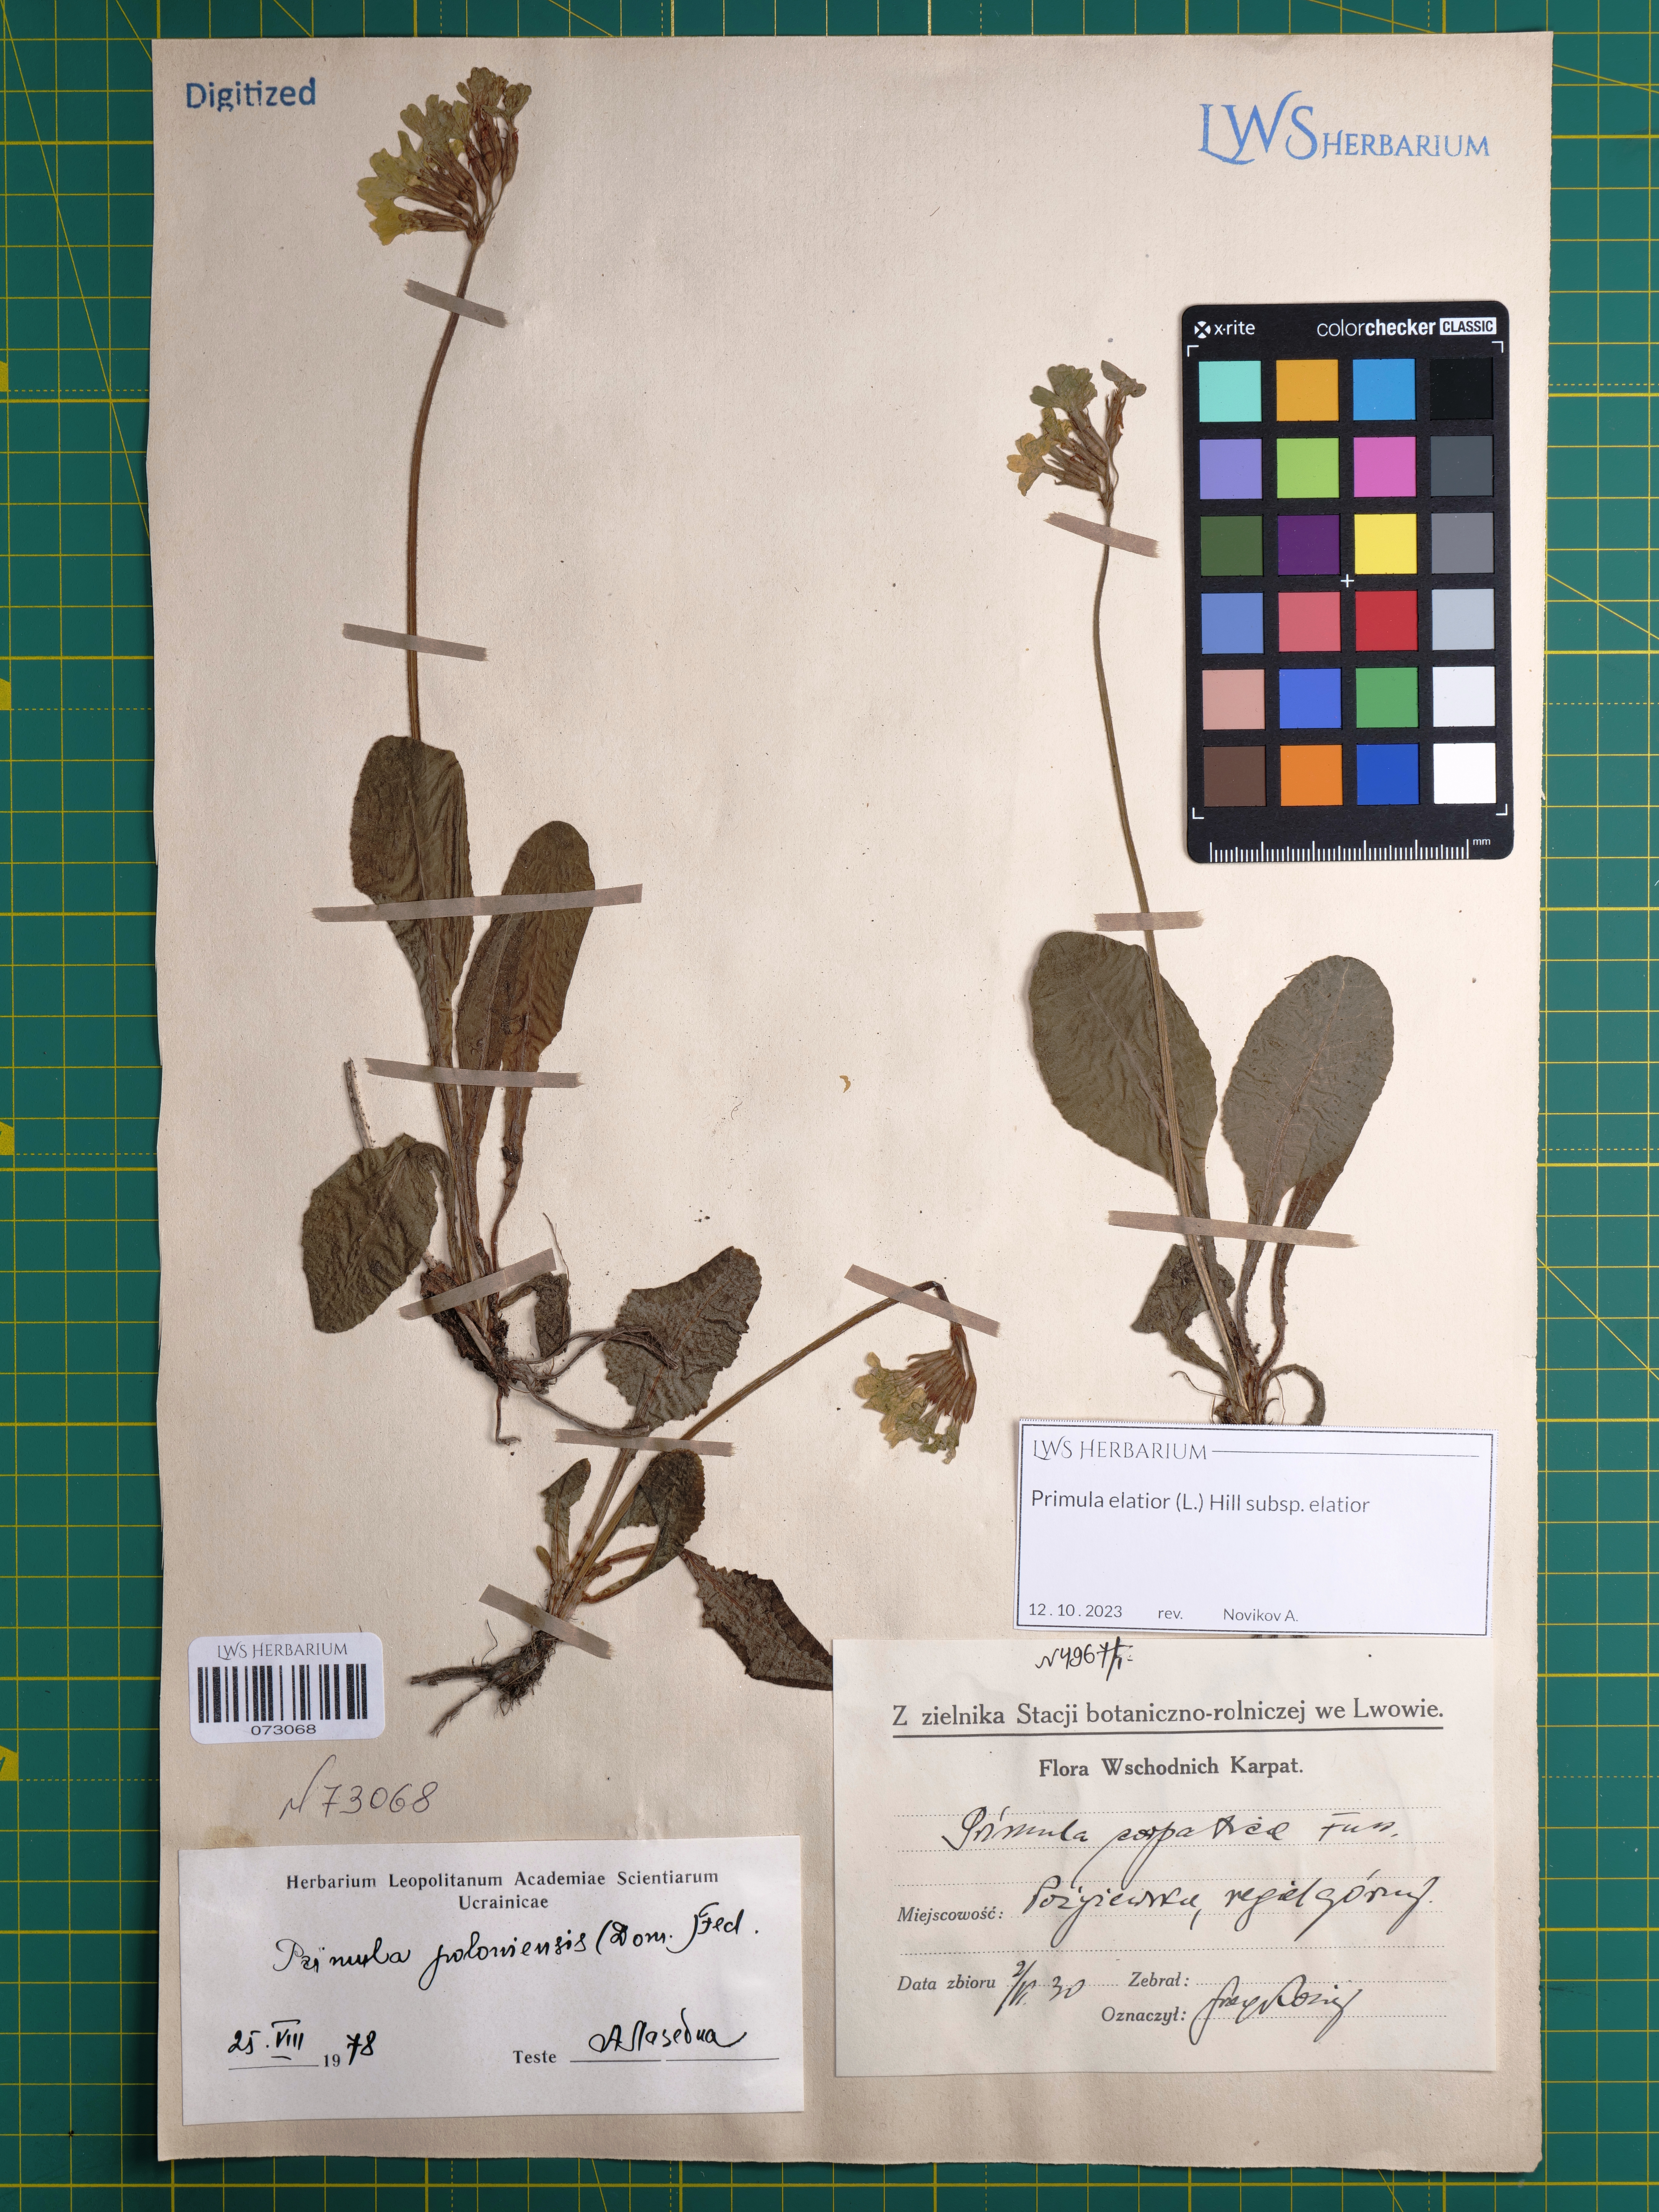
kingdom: Plantae
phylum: Tracheophyta
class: Magnoliopsida
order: Ericales
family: Primulaceae
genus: Primula
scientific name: Primula elatior
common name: Oxlip
